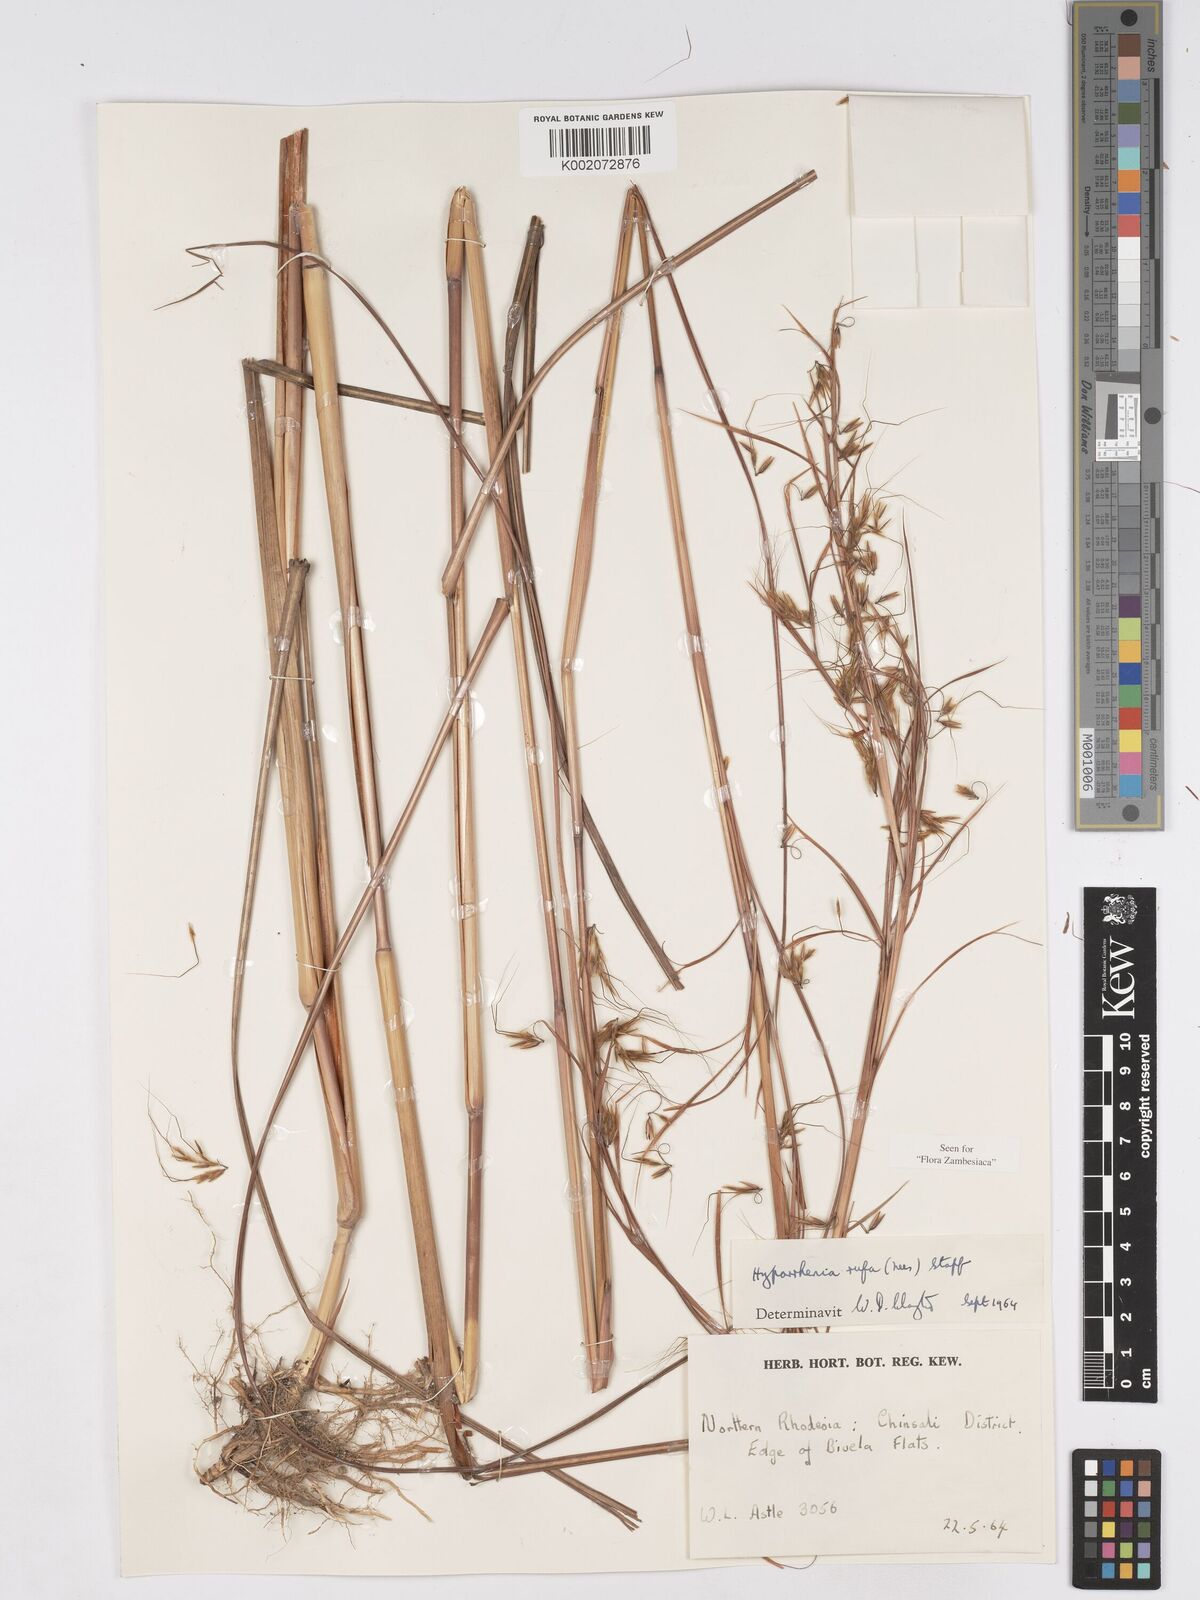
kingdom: Plantae
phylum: Tracheophyta
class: Liliopsida
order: Poales
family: Poaceae
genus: Hyparrhenia
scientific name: Hyparrhenia rufa
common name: Jaraguagrass
